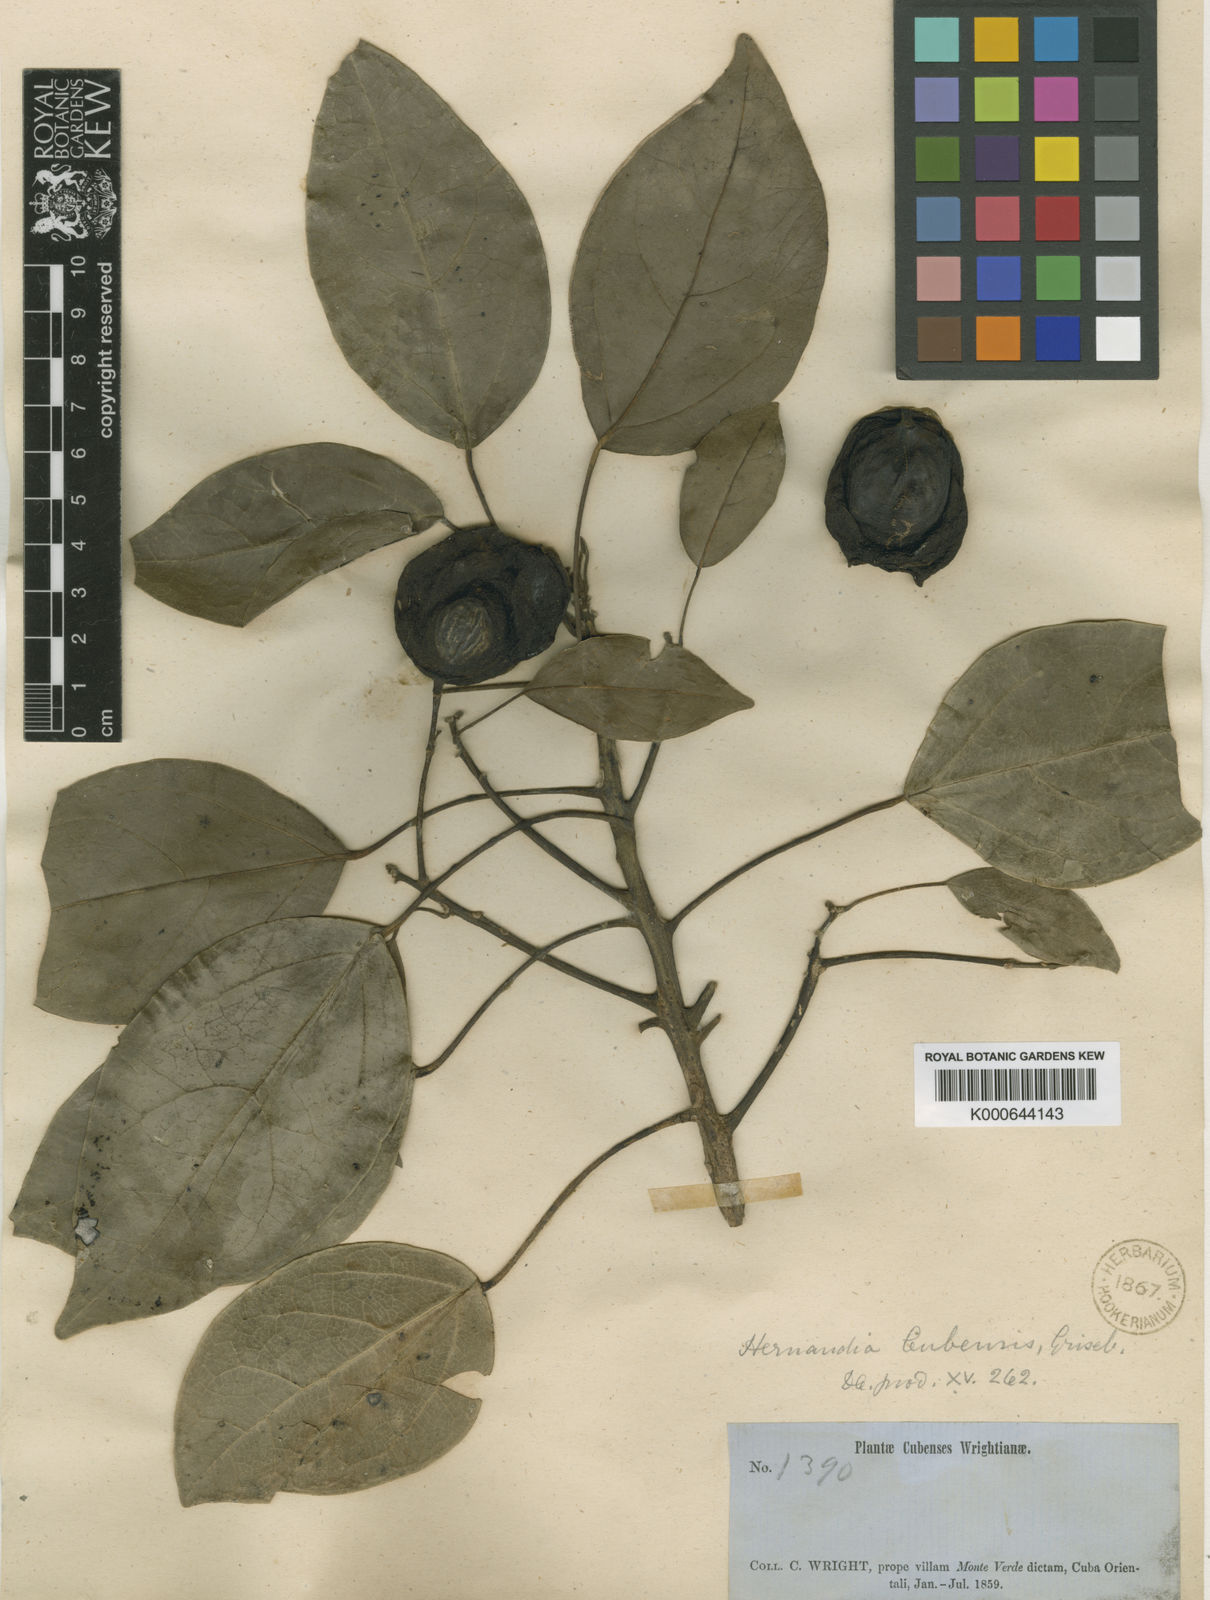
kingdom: Plantae
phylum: Tracheophyta
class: Magnoliopsida
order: Laurales
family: Hernandiaceae
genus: Hernandia
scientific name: Hernandia cubensis
